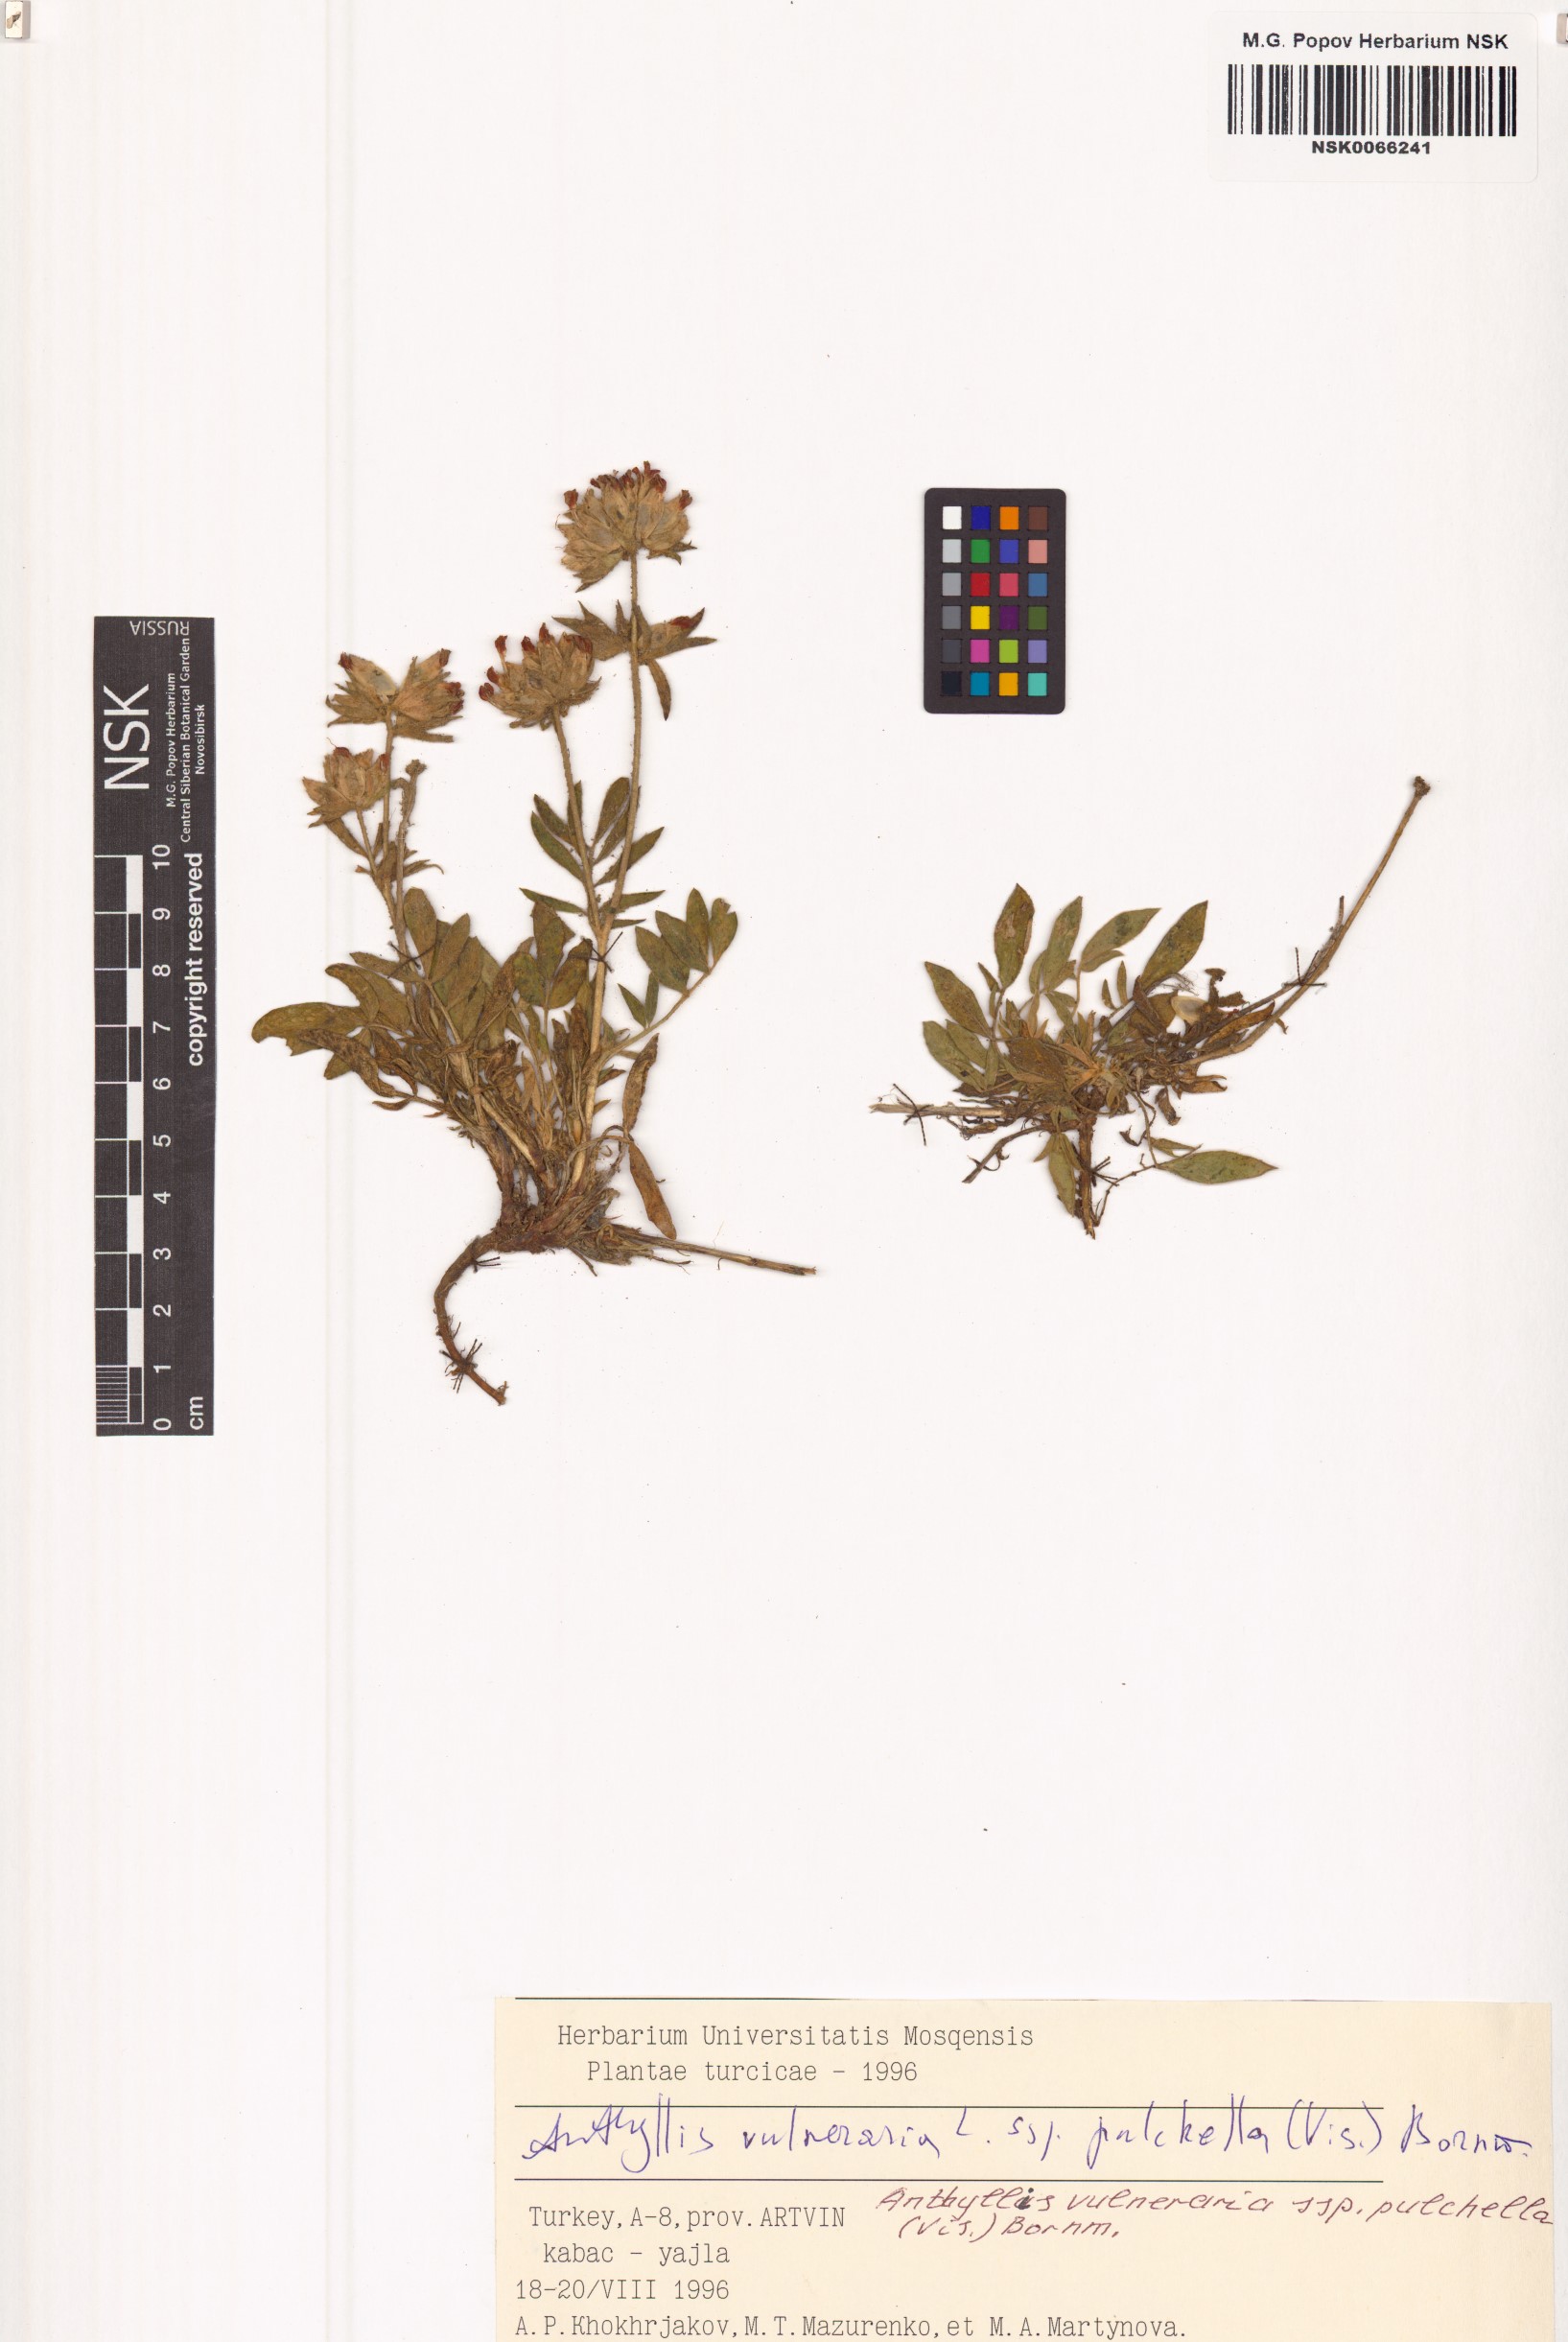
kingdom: Plantae
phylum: Tracheophyta
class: Magnoliopsida
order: Fabales
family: Fabaceae
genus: Anthyllis
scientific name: Anthyllis vulneraria
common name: Kidney vetch
